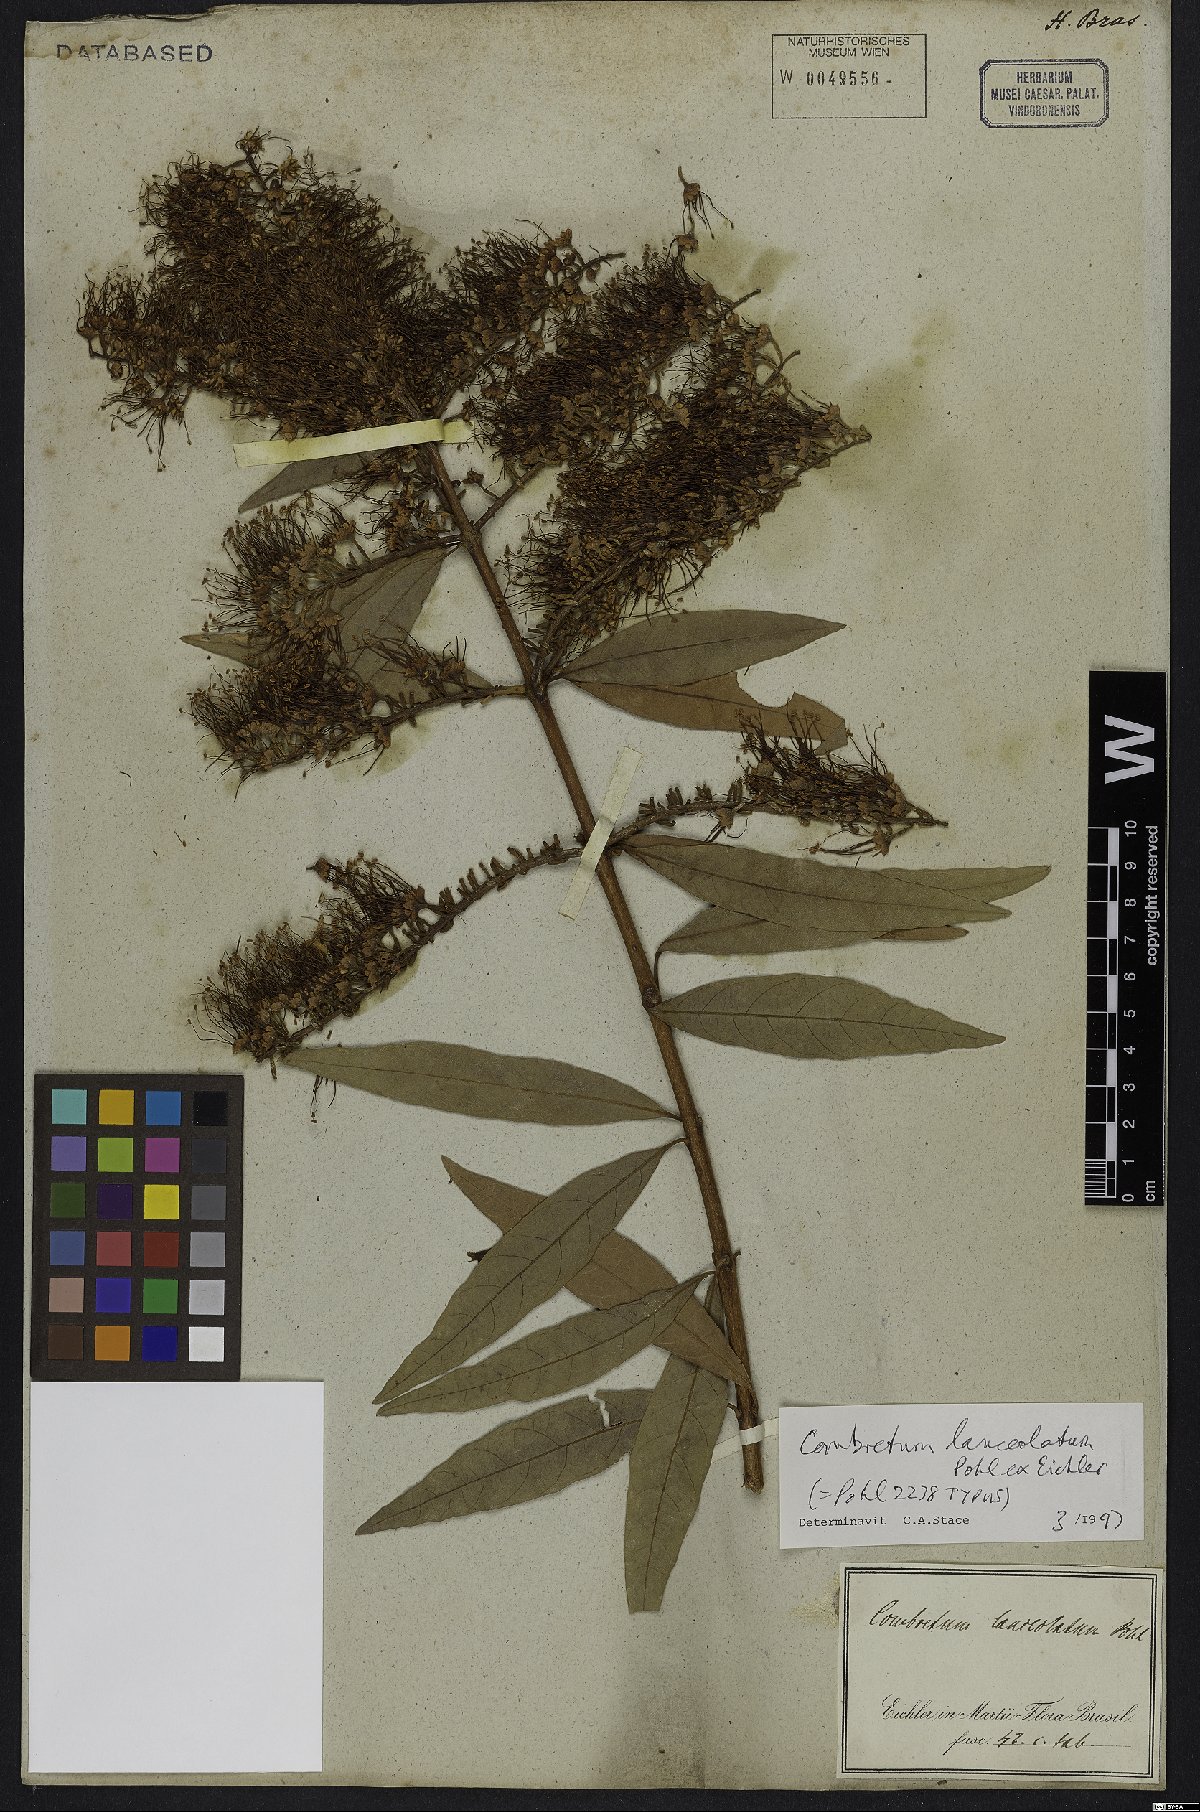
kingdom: Plantae
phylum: Tracheophyta
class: Magnoliopsida
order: Myrtales
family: Combretaceae
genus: Combretum
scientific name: Combretum lanceolatum
